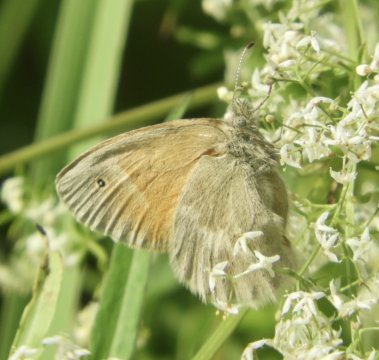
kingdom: Animalia
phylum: Arthropoda
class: Insecta
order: Lepidoptera
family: Nymphalidae
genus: Coenonympha
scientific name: Coenonympha tullia
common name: Large Heath
